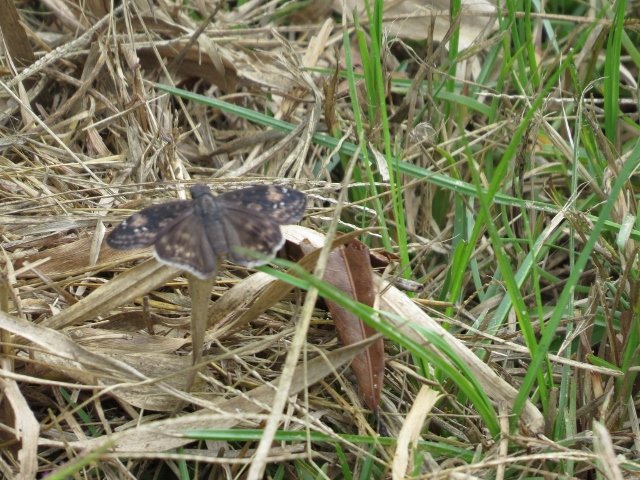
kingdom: Animalia
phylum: Arthropoda
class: Insecta
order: Lepidoptera
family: Hesperiidae
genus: Erynnis
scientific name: Erynnis zarucco
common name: Zarucco Duskywing
